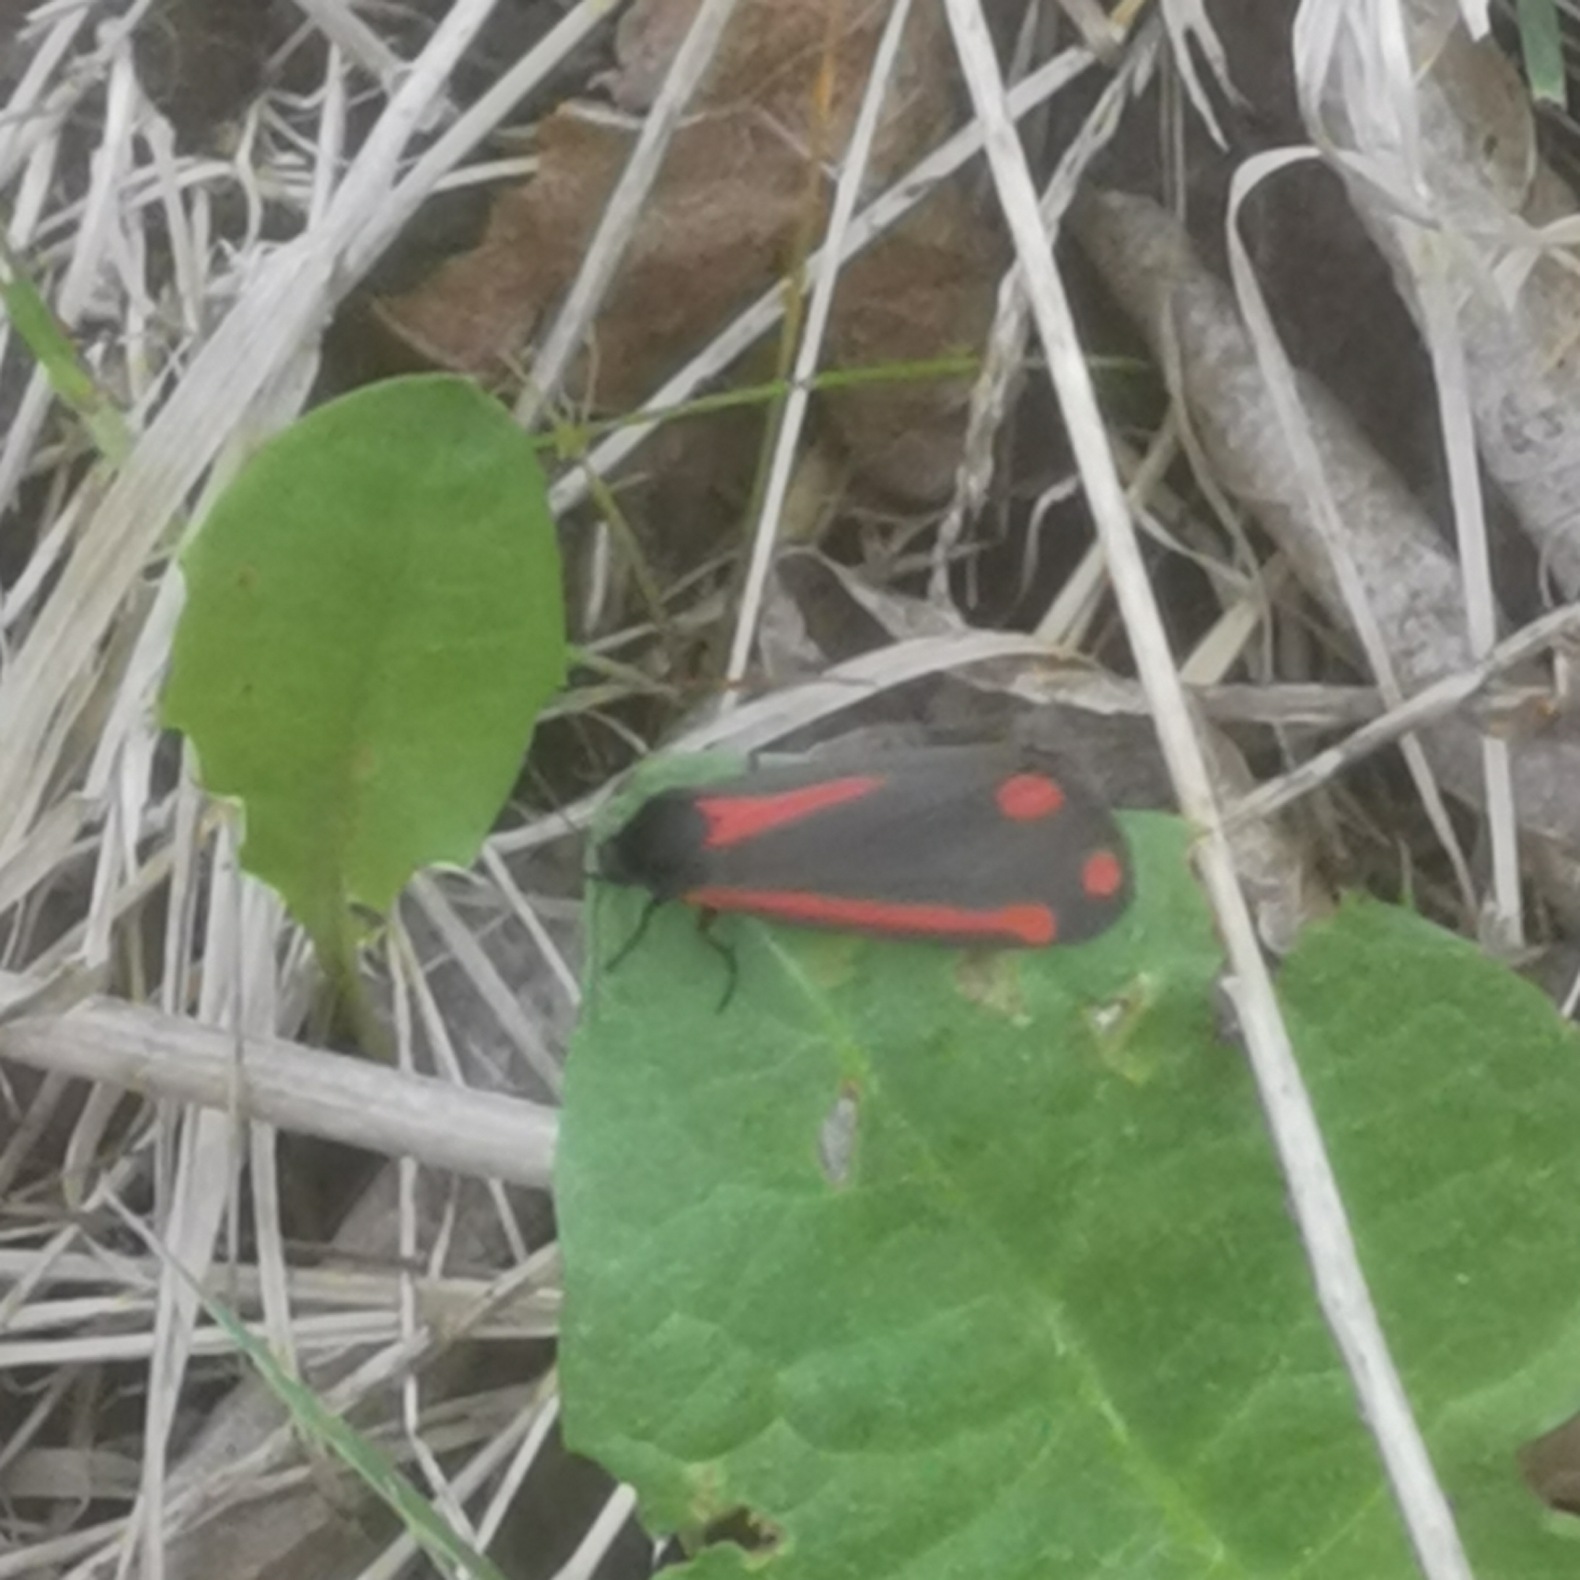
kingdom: Animalia
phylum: Arthropoda
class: Insecta
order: Lepidoptera
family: Erebidae
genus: Tyria
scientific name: Tyria jacobaeae
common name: Blodplet
